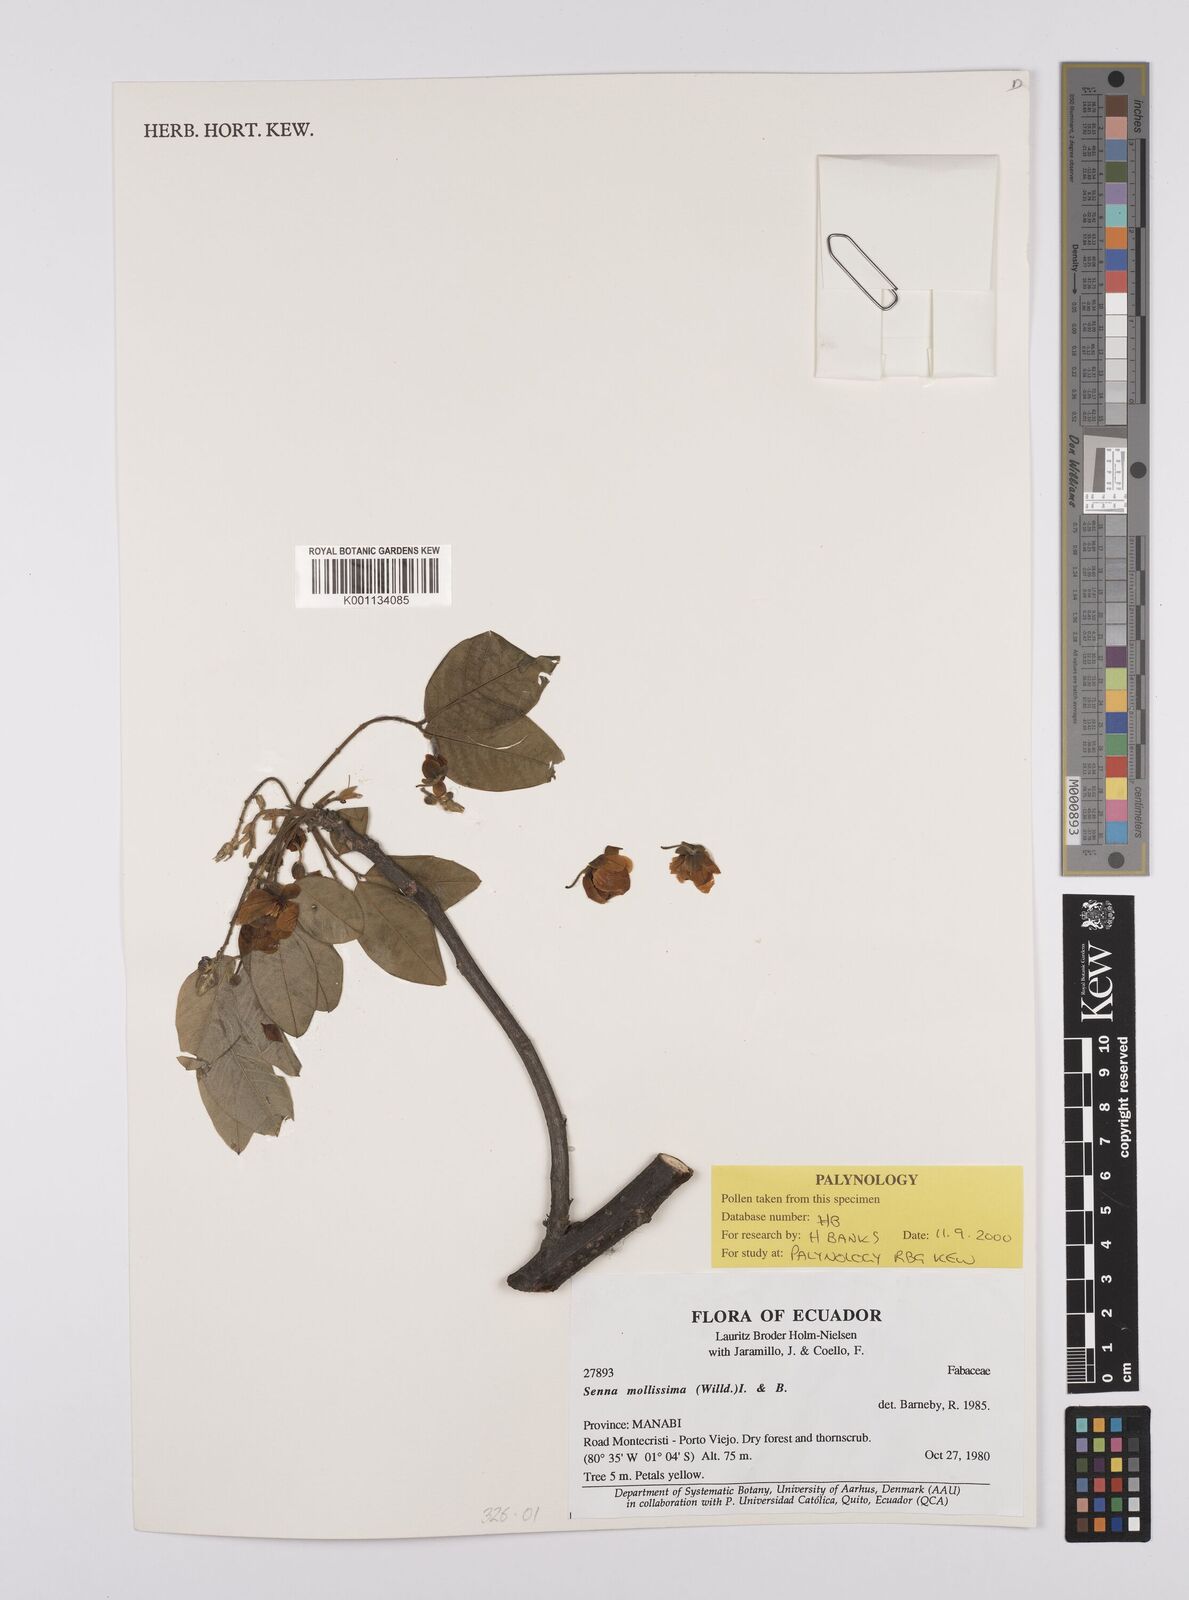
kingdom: Plantae
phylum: Tracheophyta
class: Magnoliopsida
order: Fabales
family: Fabaceae
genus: Senna
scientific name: Senna mollissima
